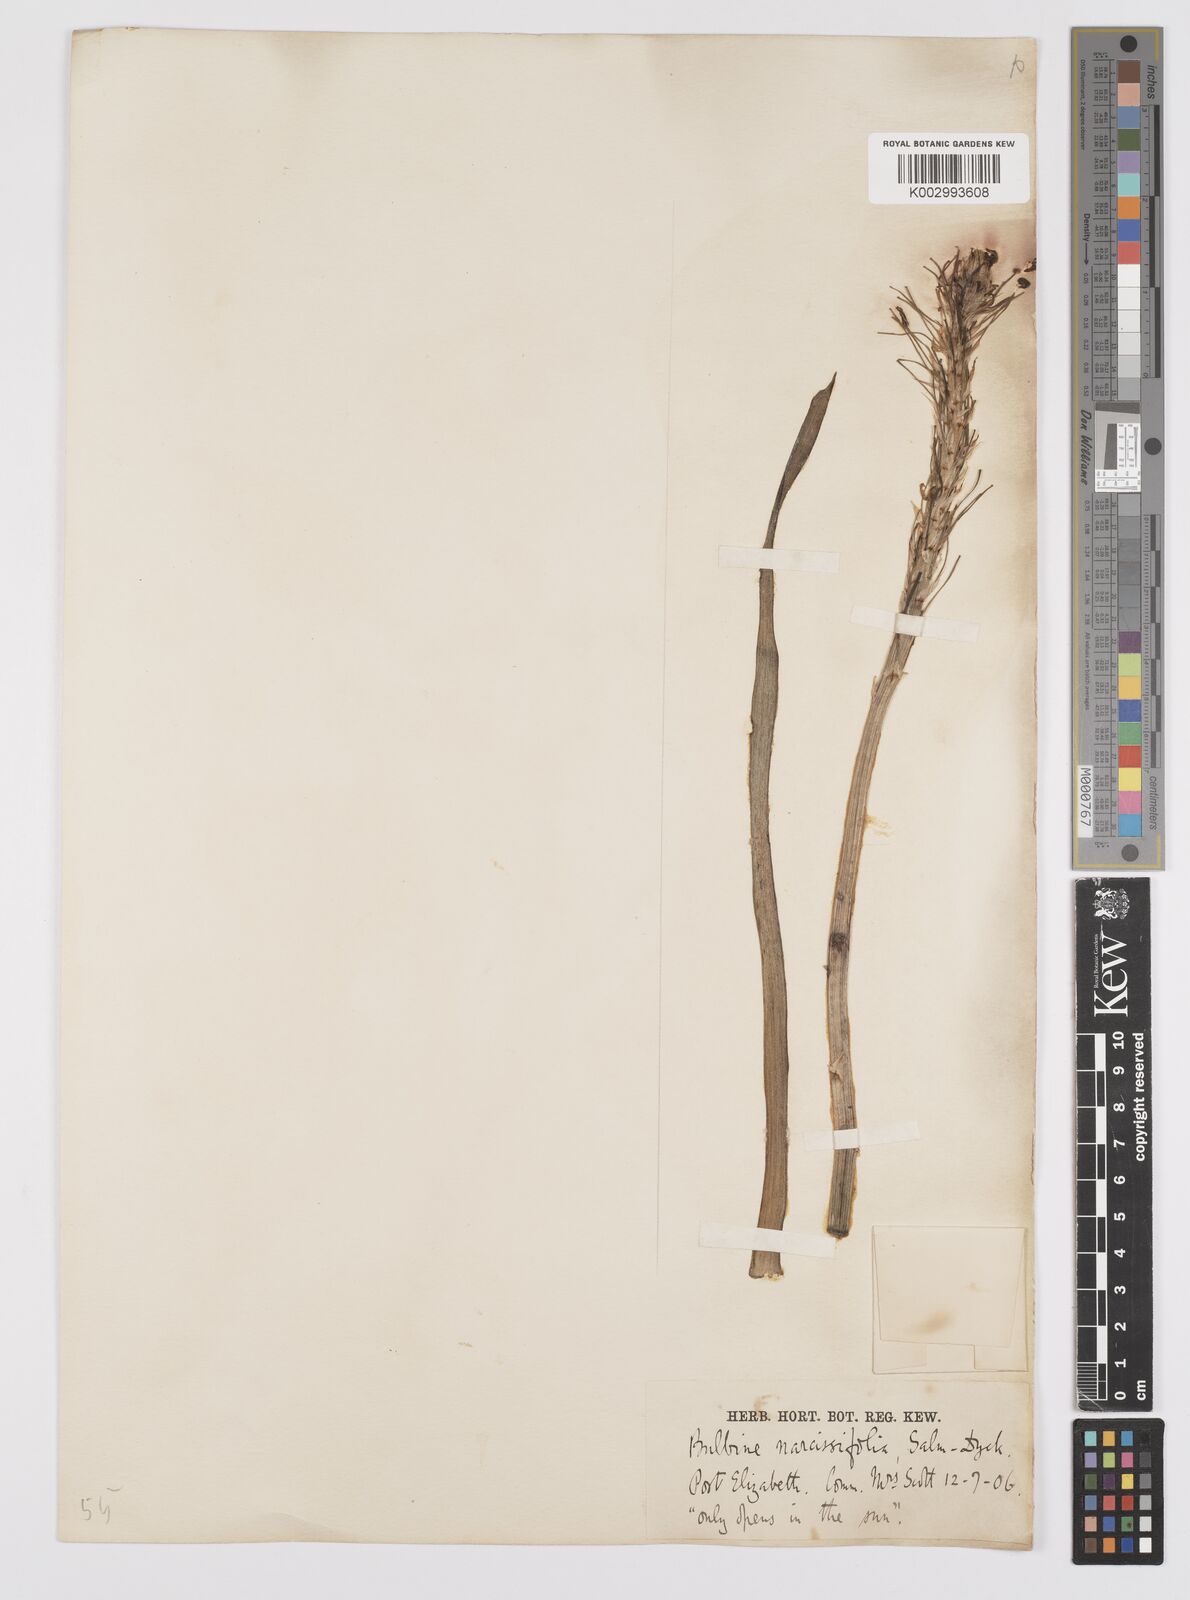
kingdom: Plantae
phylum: Tracheophyta
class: Liliopsida
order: Asparagales
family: Asphodelaceae
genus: Bulbine
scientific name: Bulbine narcissifolia
